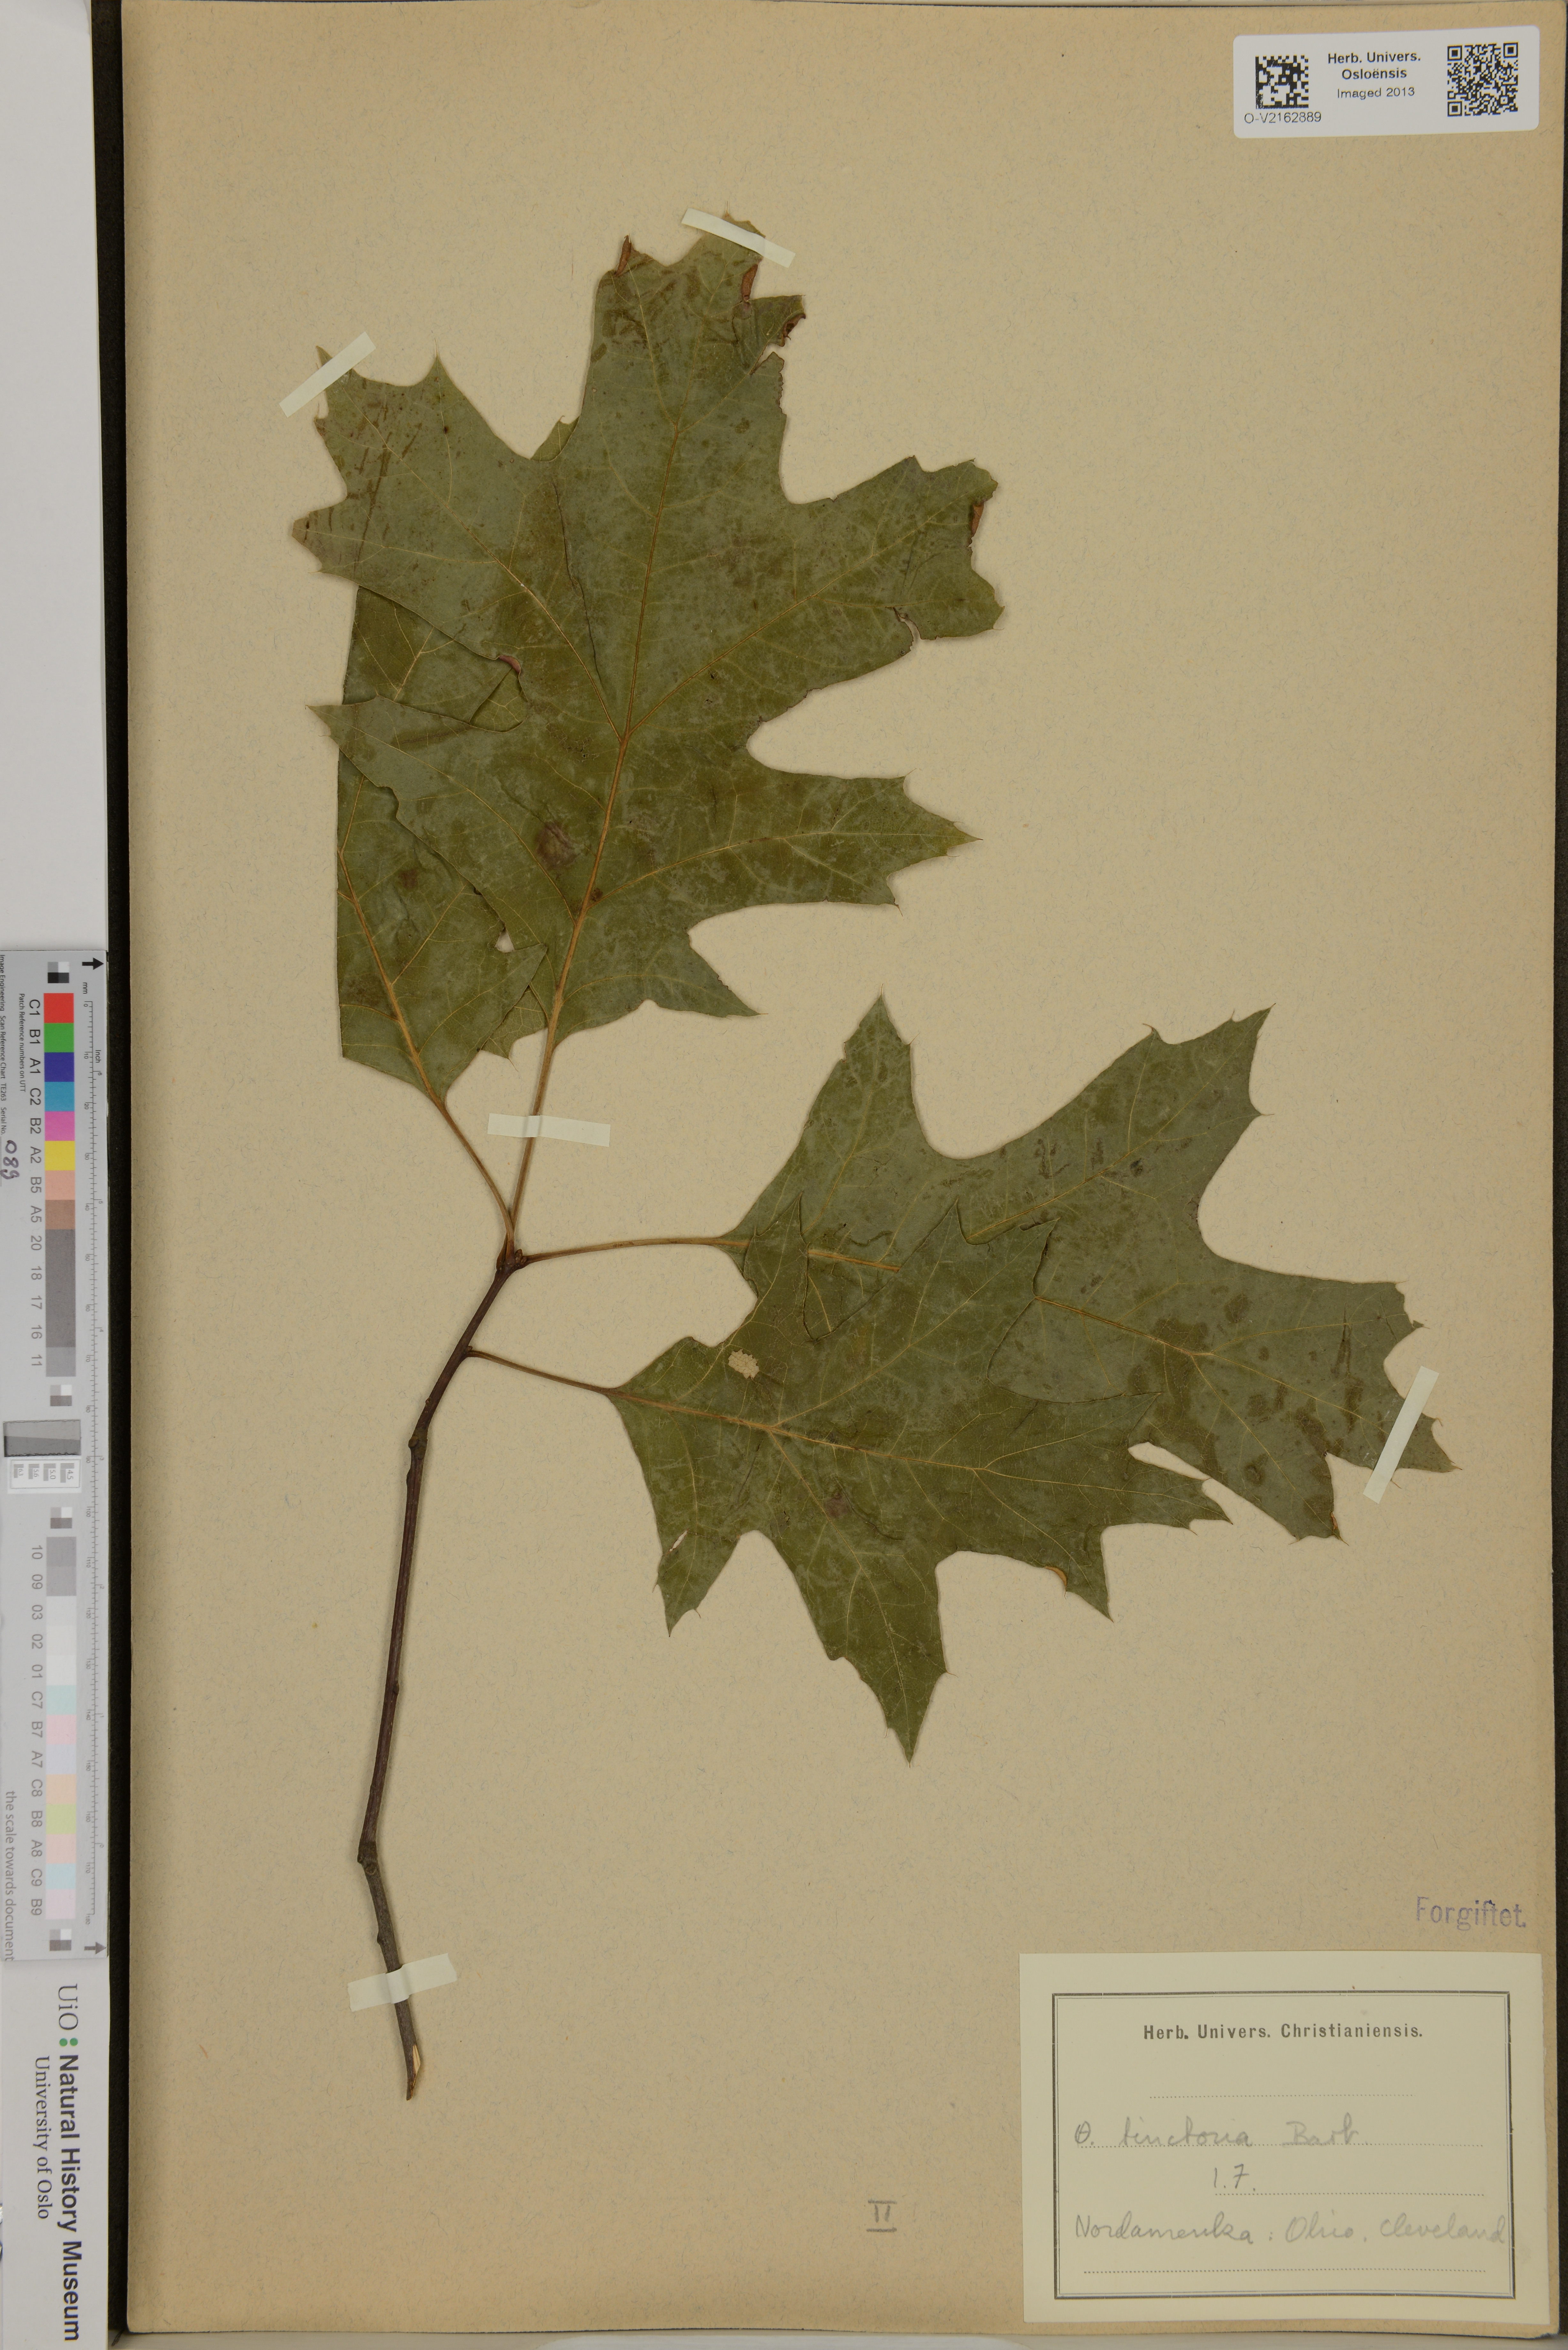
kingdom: Plantae
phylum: Tracheophyta
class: Magnoliopsida
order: Fagales
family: Fagaceae
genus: Quercus
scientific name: Quercus
